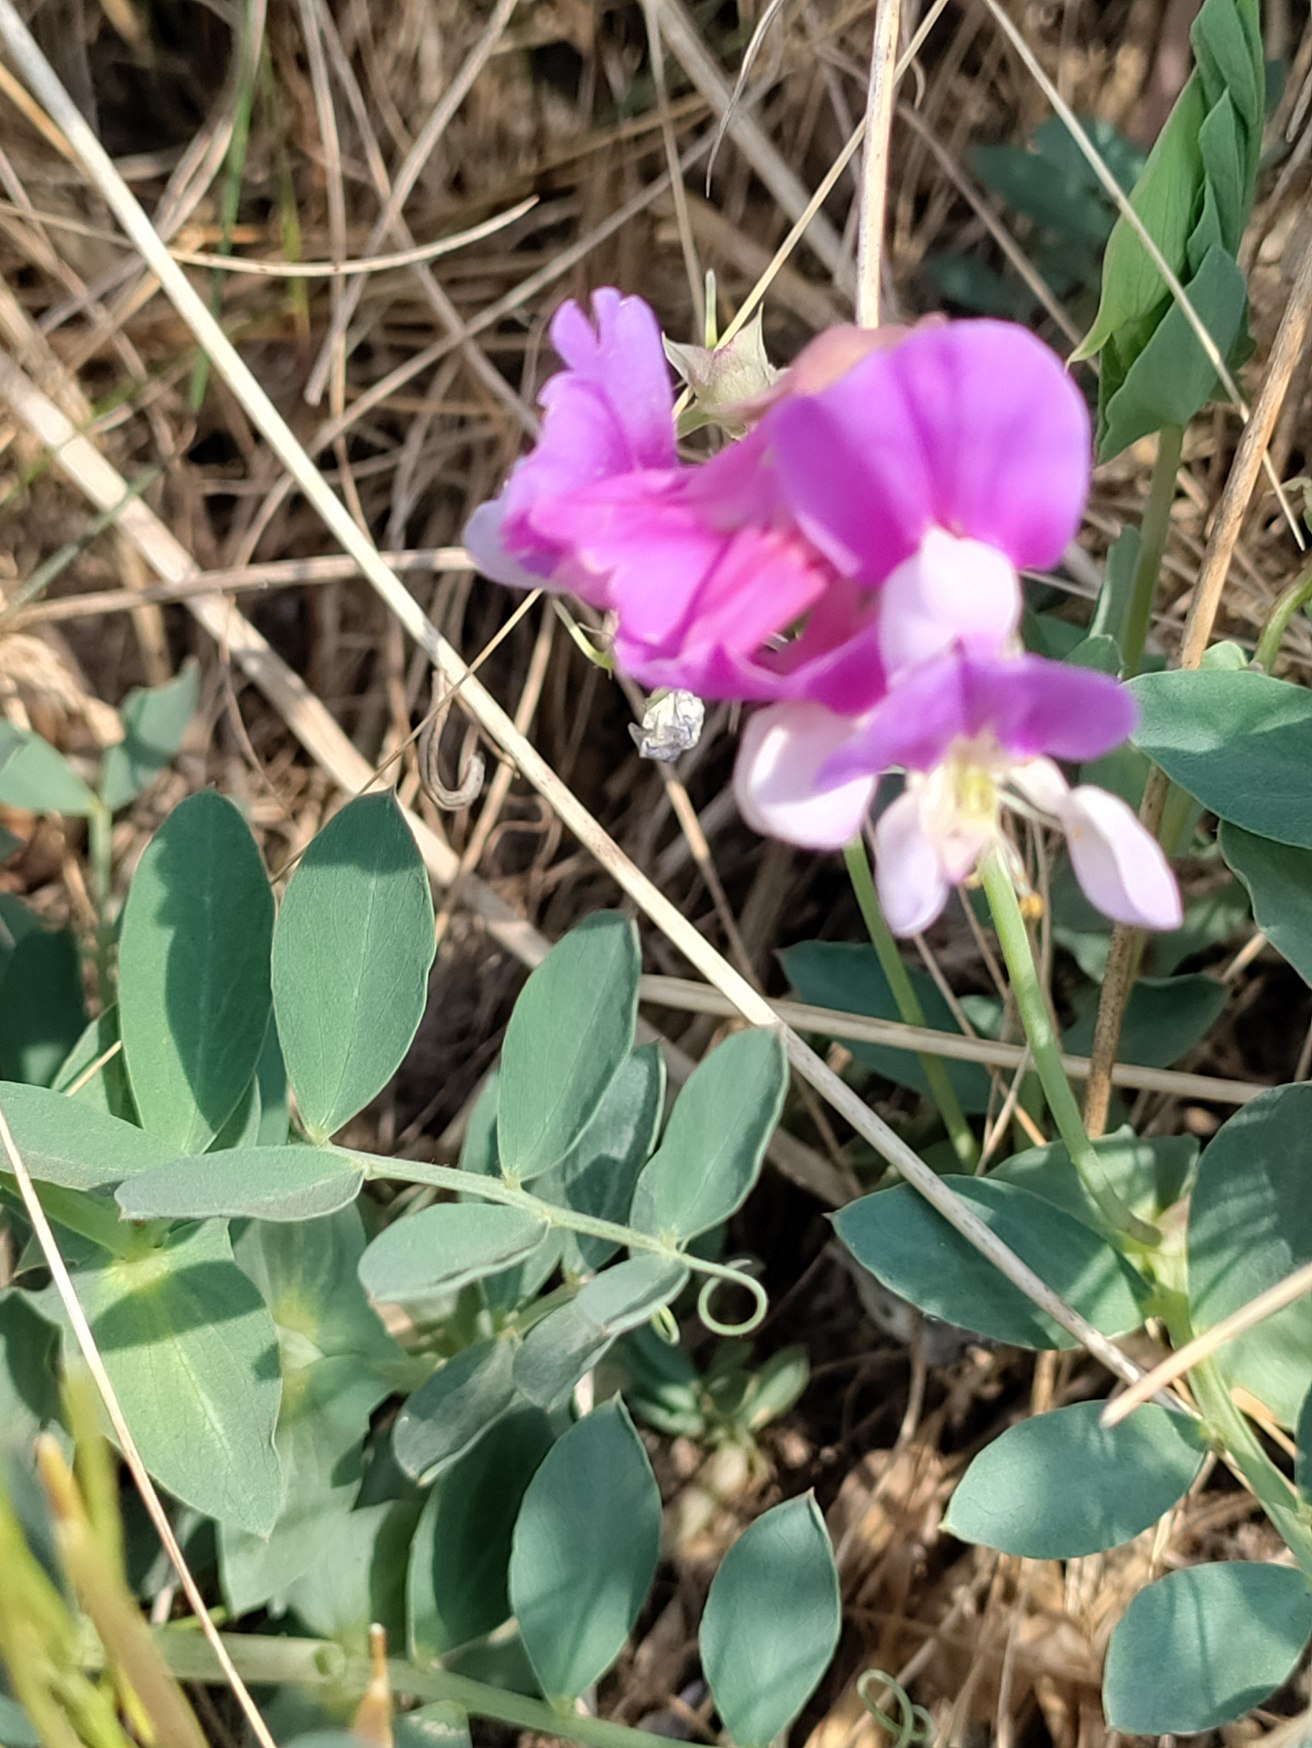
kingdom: Plantae
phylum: Tracheophyta
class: Magnoliopsida
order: Fabales
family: Fabaceae
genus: Lathyrus
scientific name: Lathyrus japonicus
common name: Strand-fladbælg
